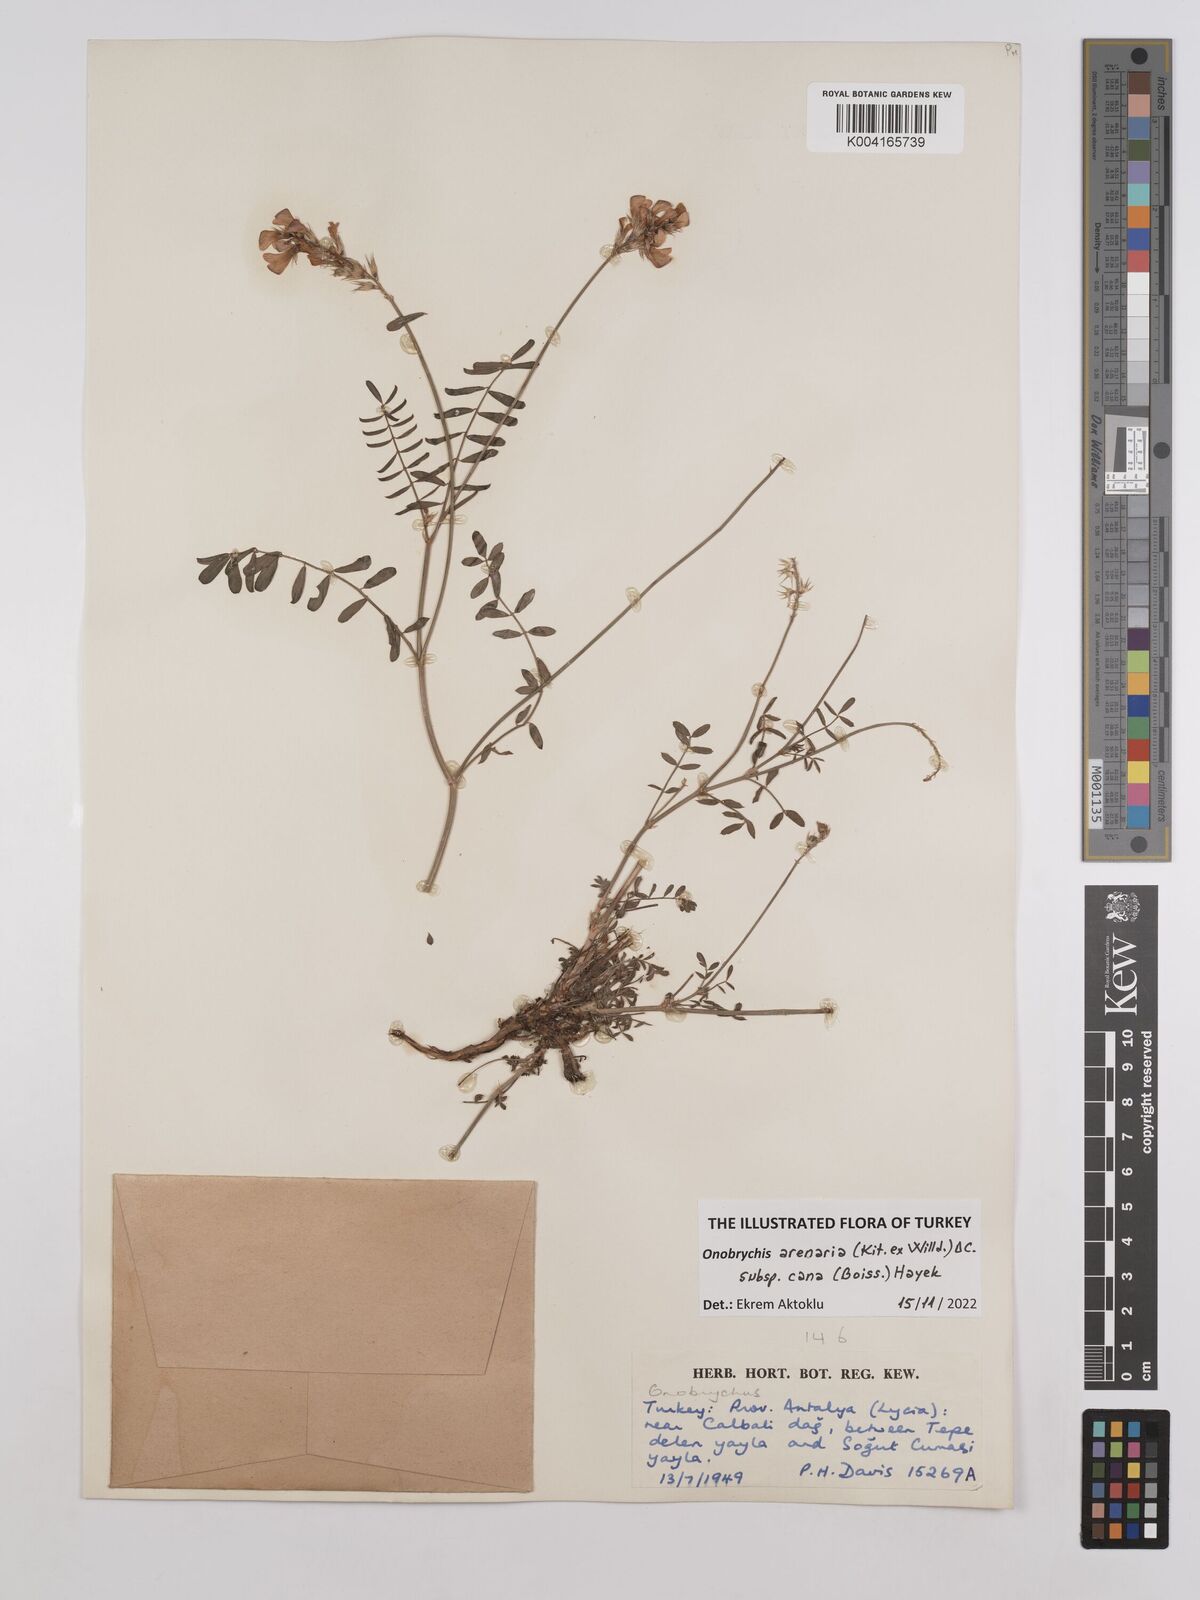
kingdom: Plantae
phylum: Tracheophyta
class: Magnoliopsida
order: Fabales
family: Fabaceae
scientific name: Fabaceae
